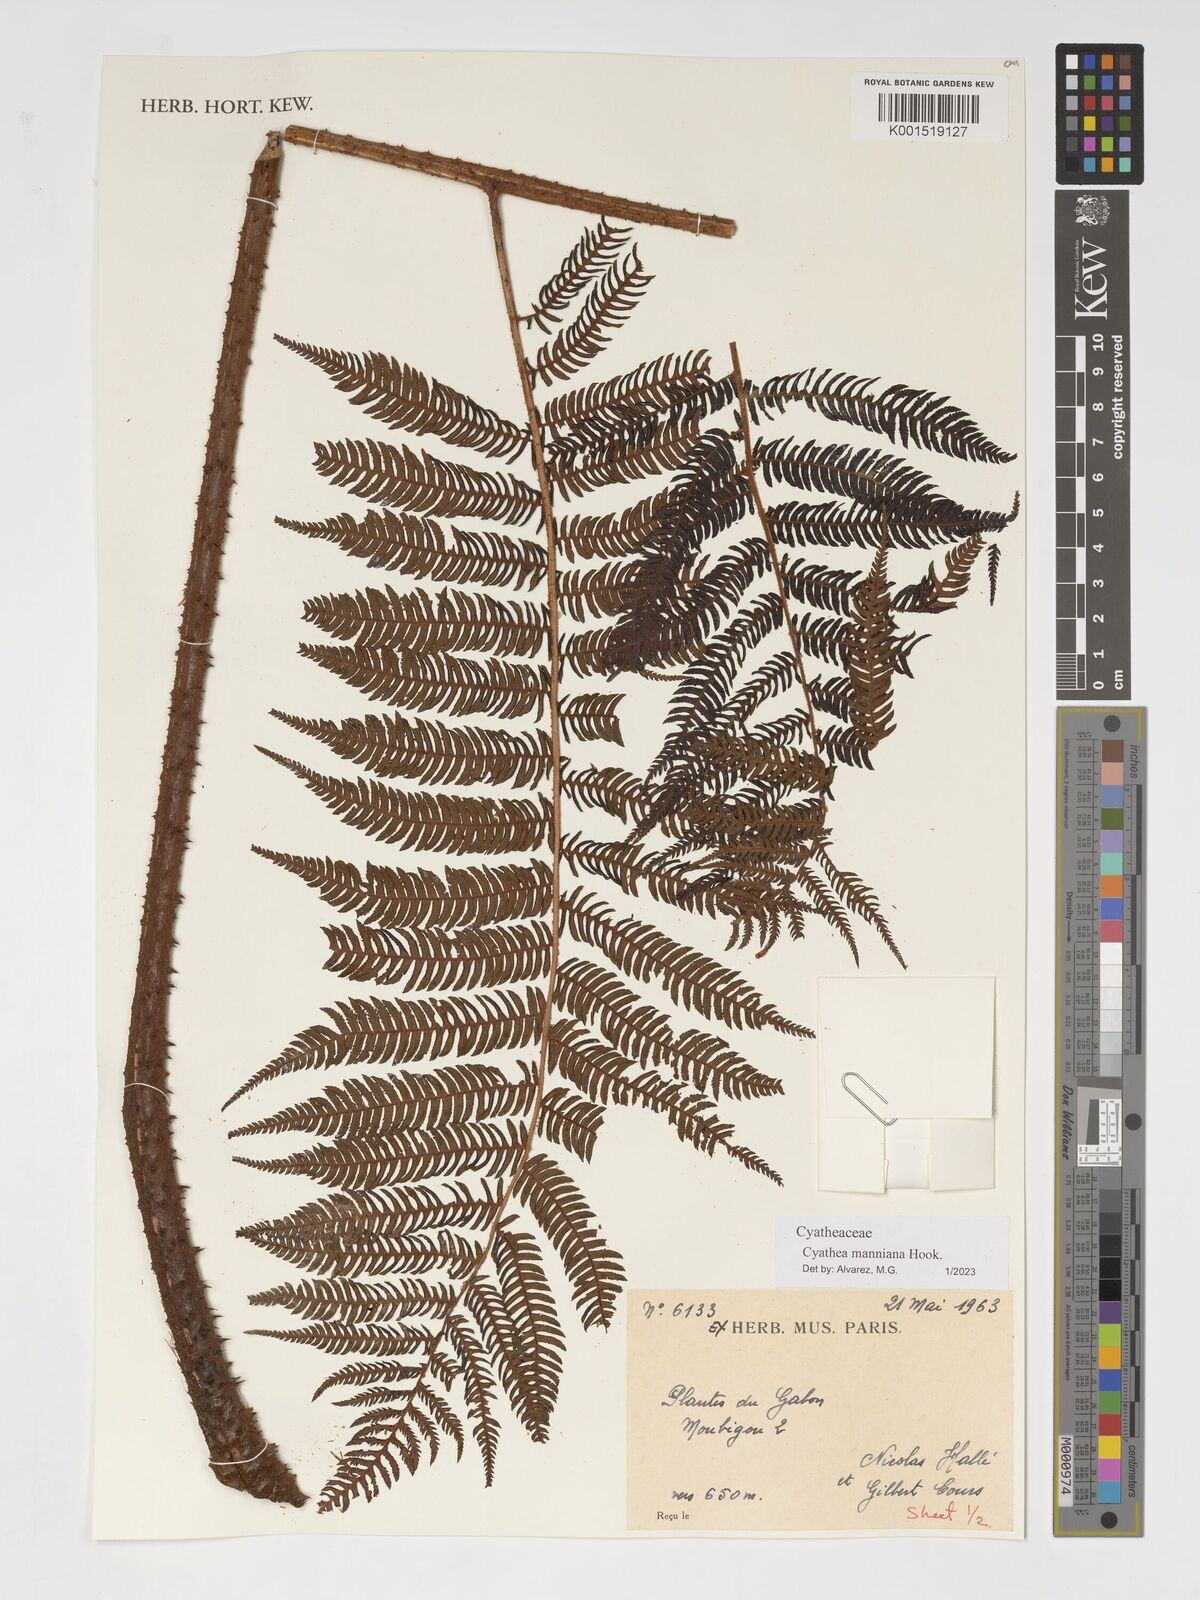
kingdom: Plantae
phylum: Tracheophyta
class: Polypodiopsida
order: Cyatheales
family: Cyatheaceae
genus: Alsophila
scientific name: Alsophila manniana
